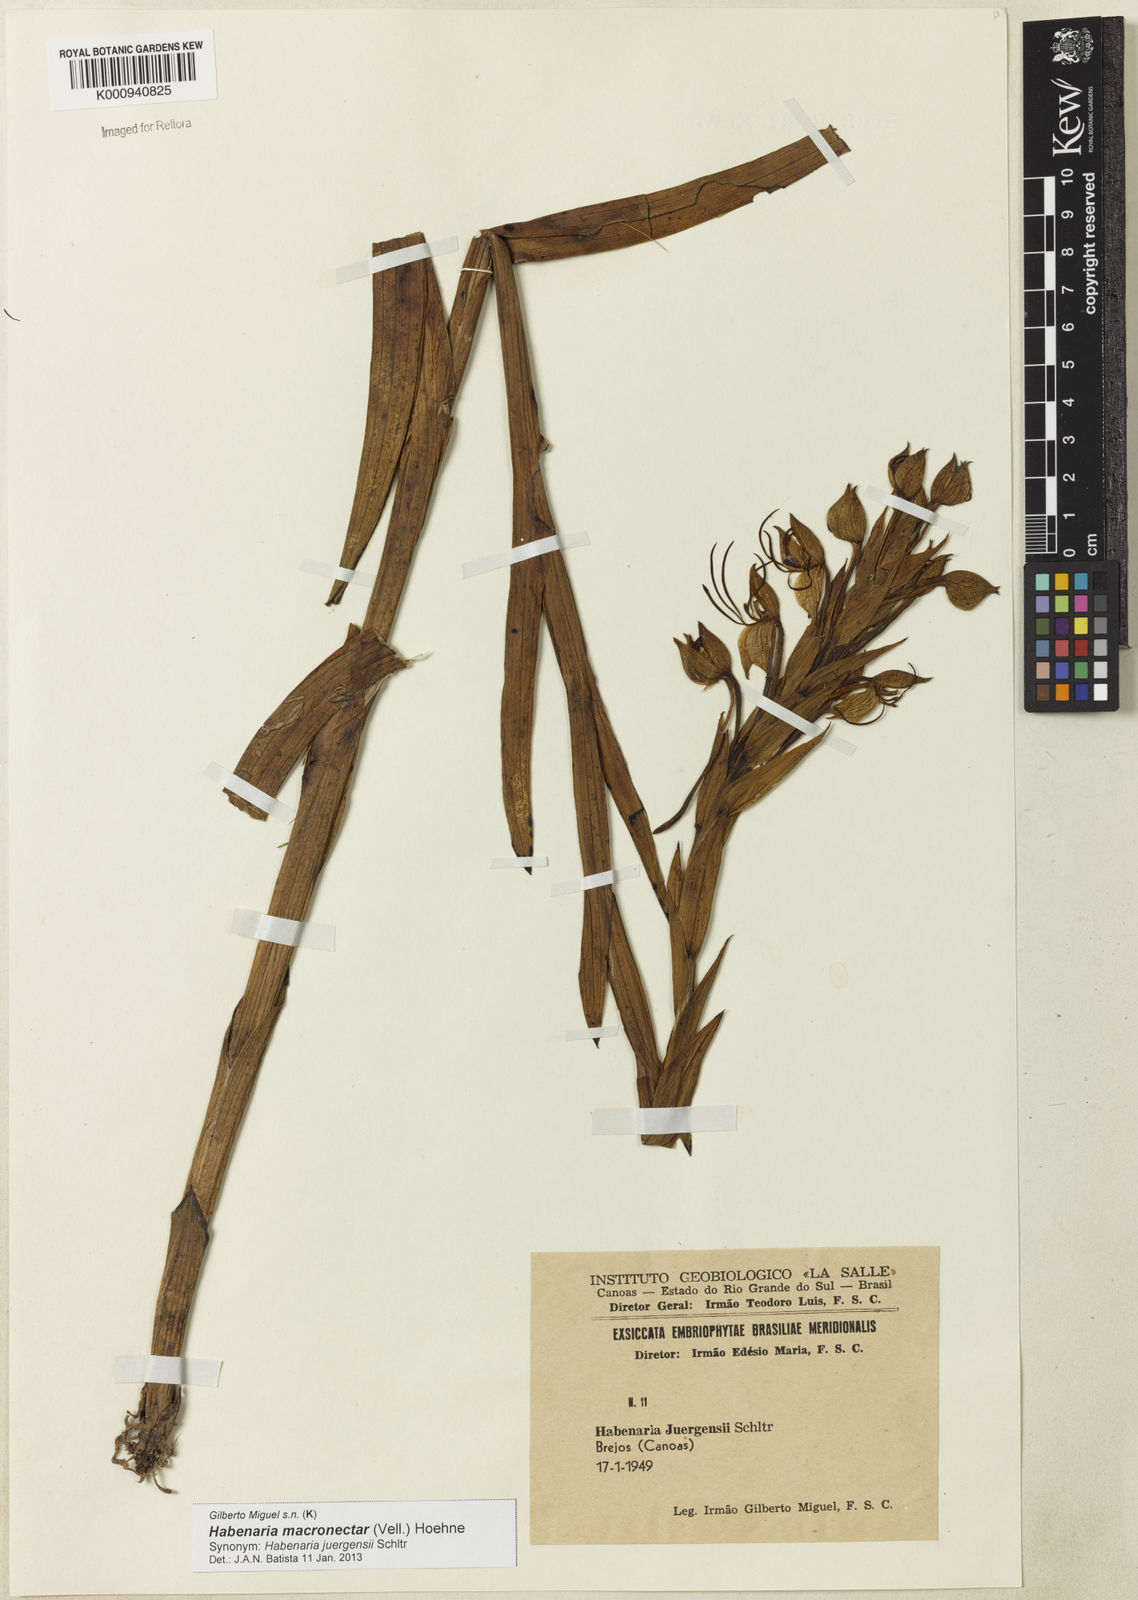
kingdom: Plantae
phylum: Tracheophyta
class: Liliopsida
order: Asparagales
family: Orchidaceae
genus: Habenaria
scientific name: Habenaria macronectar
